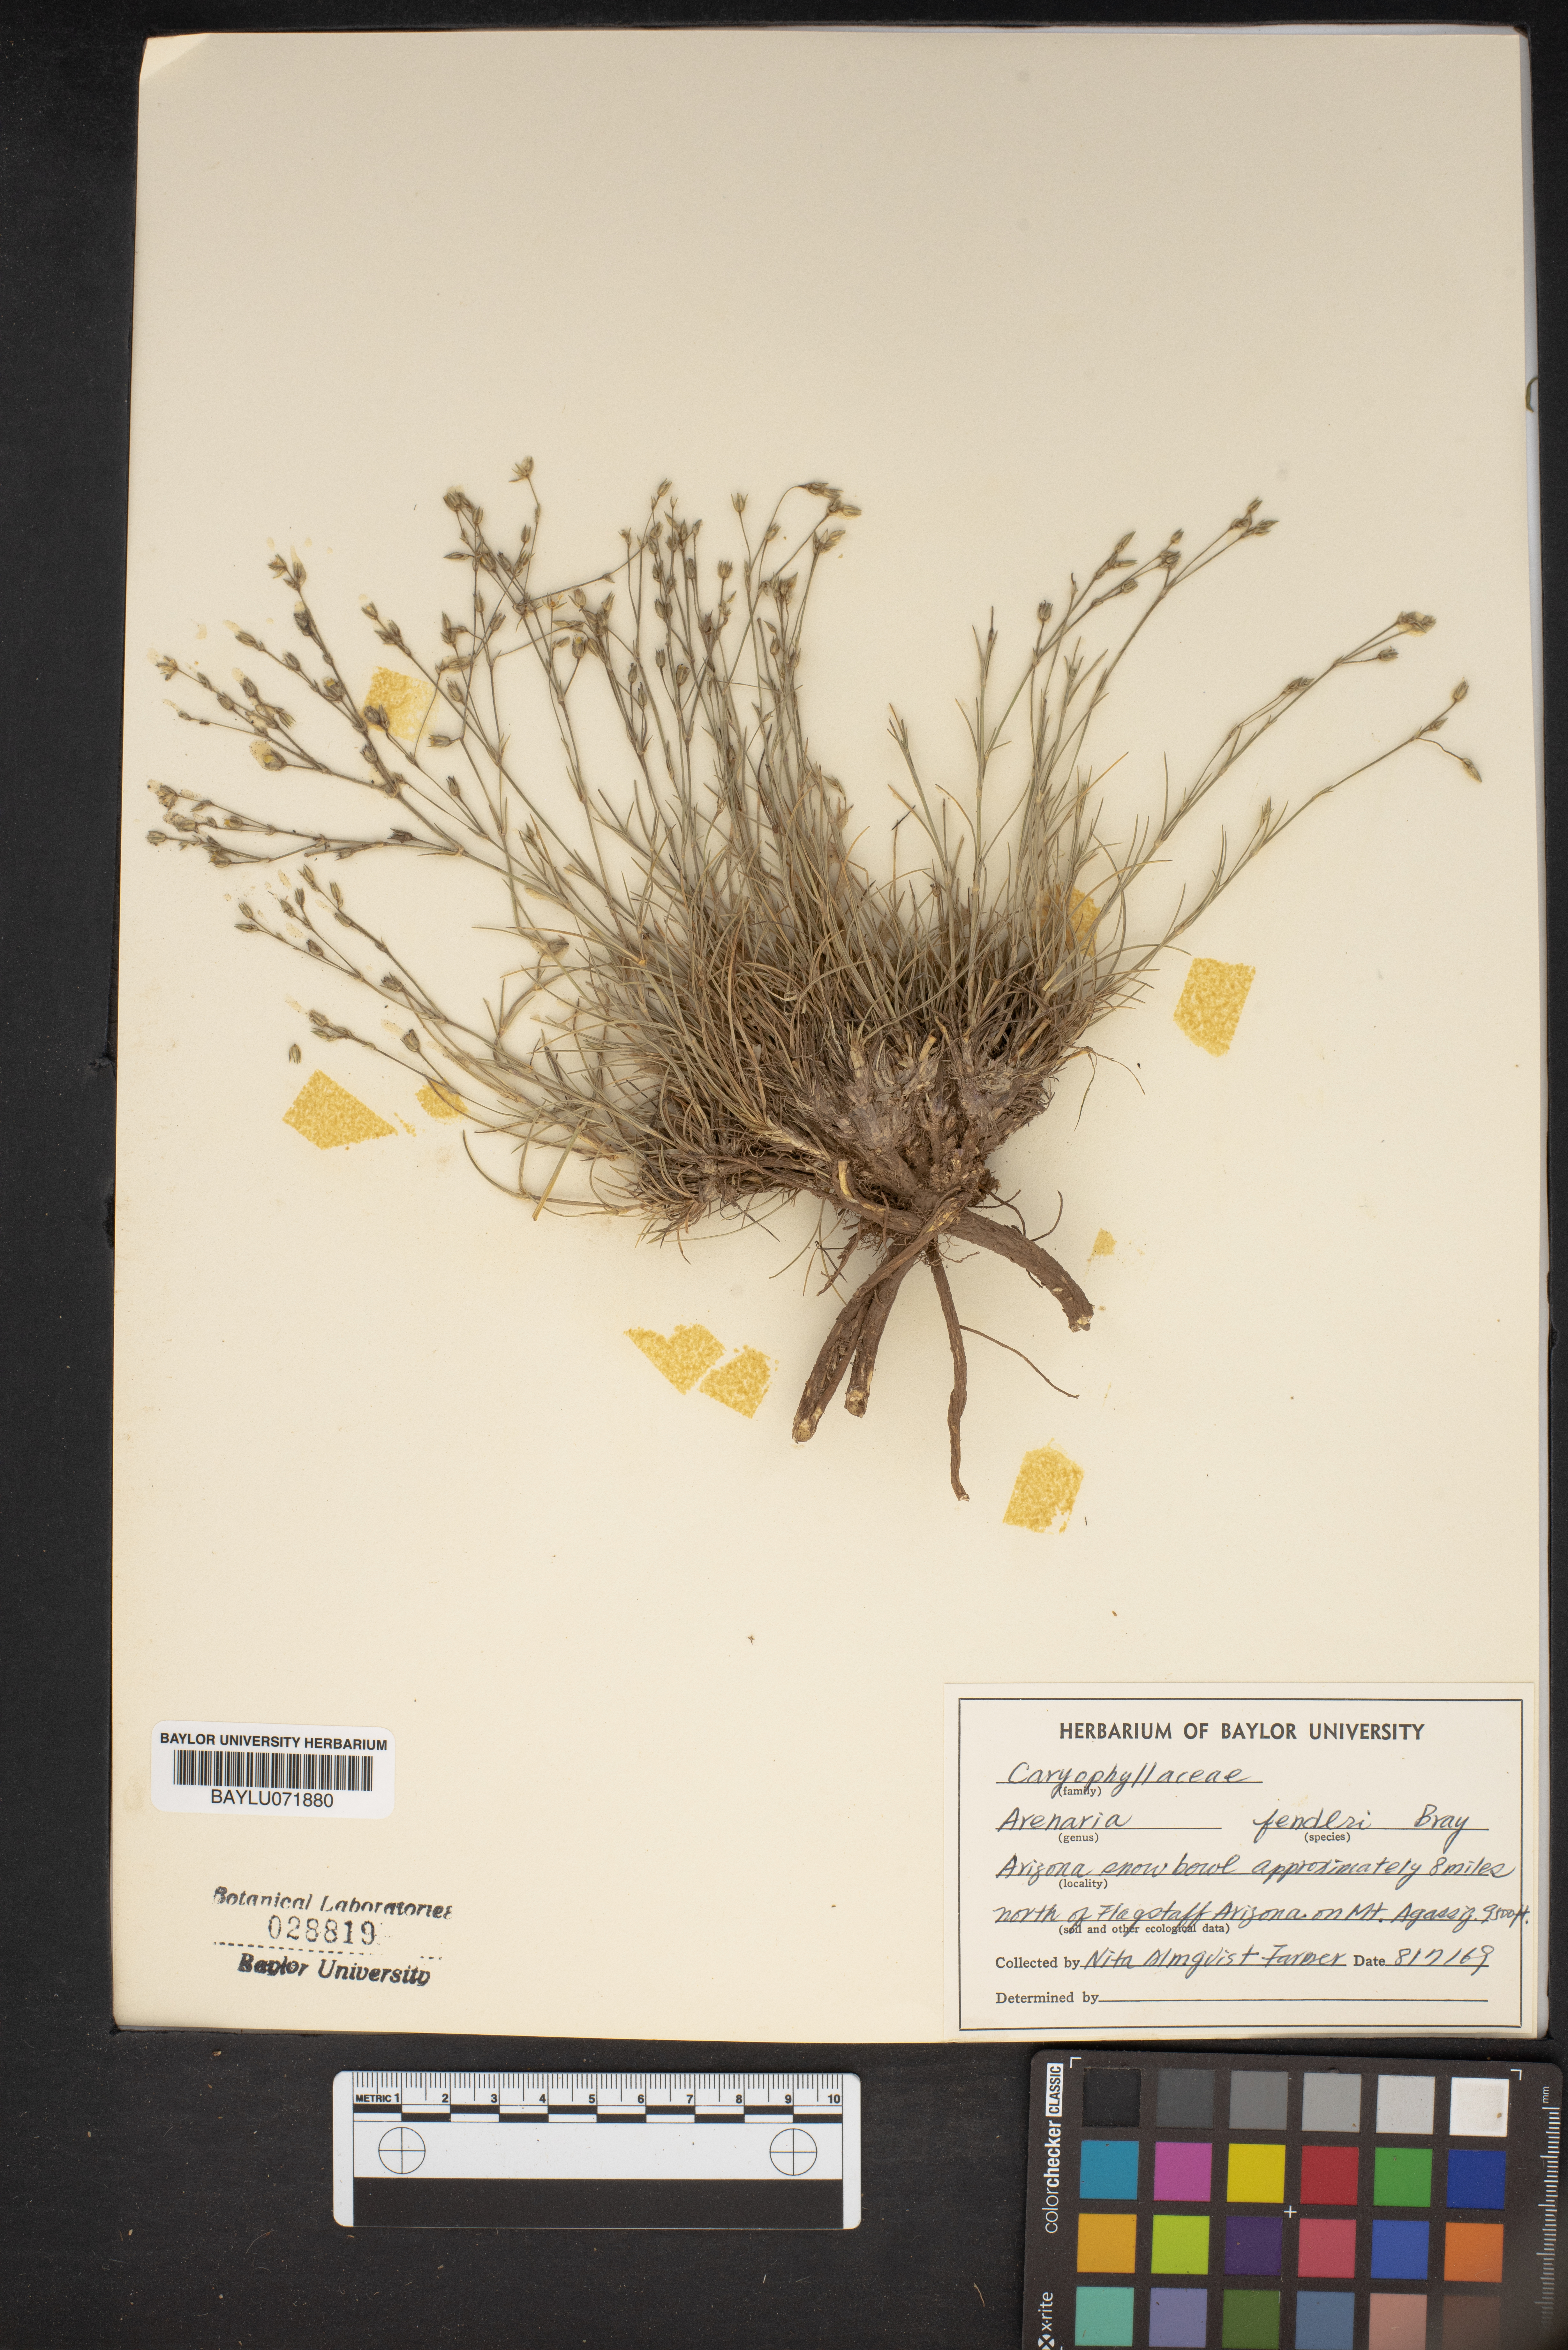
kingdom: Plantae
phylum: Tracheophyta
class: Magnoliopsida
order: Caryophyllales
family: Caryophyllaceae
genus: Eremogone
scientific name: Eremogone fendleri
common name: Fendler's sandwort
